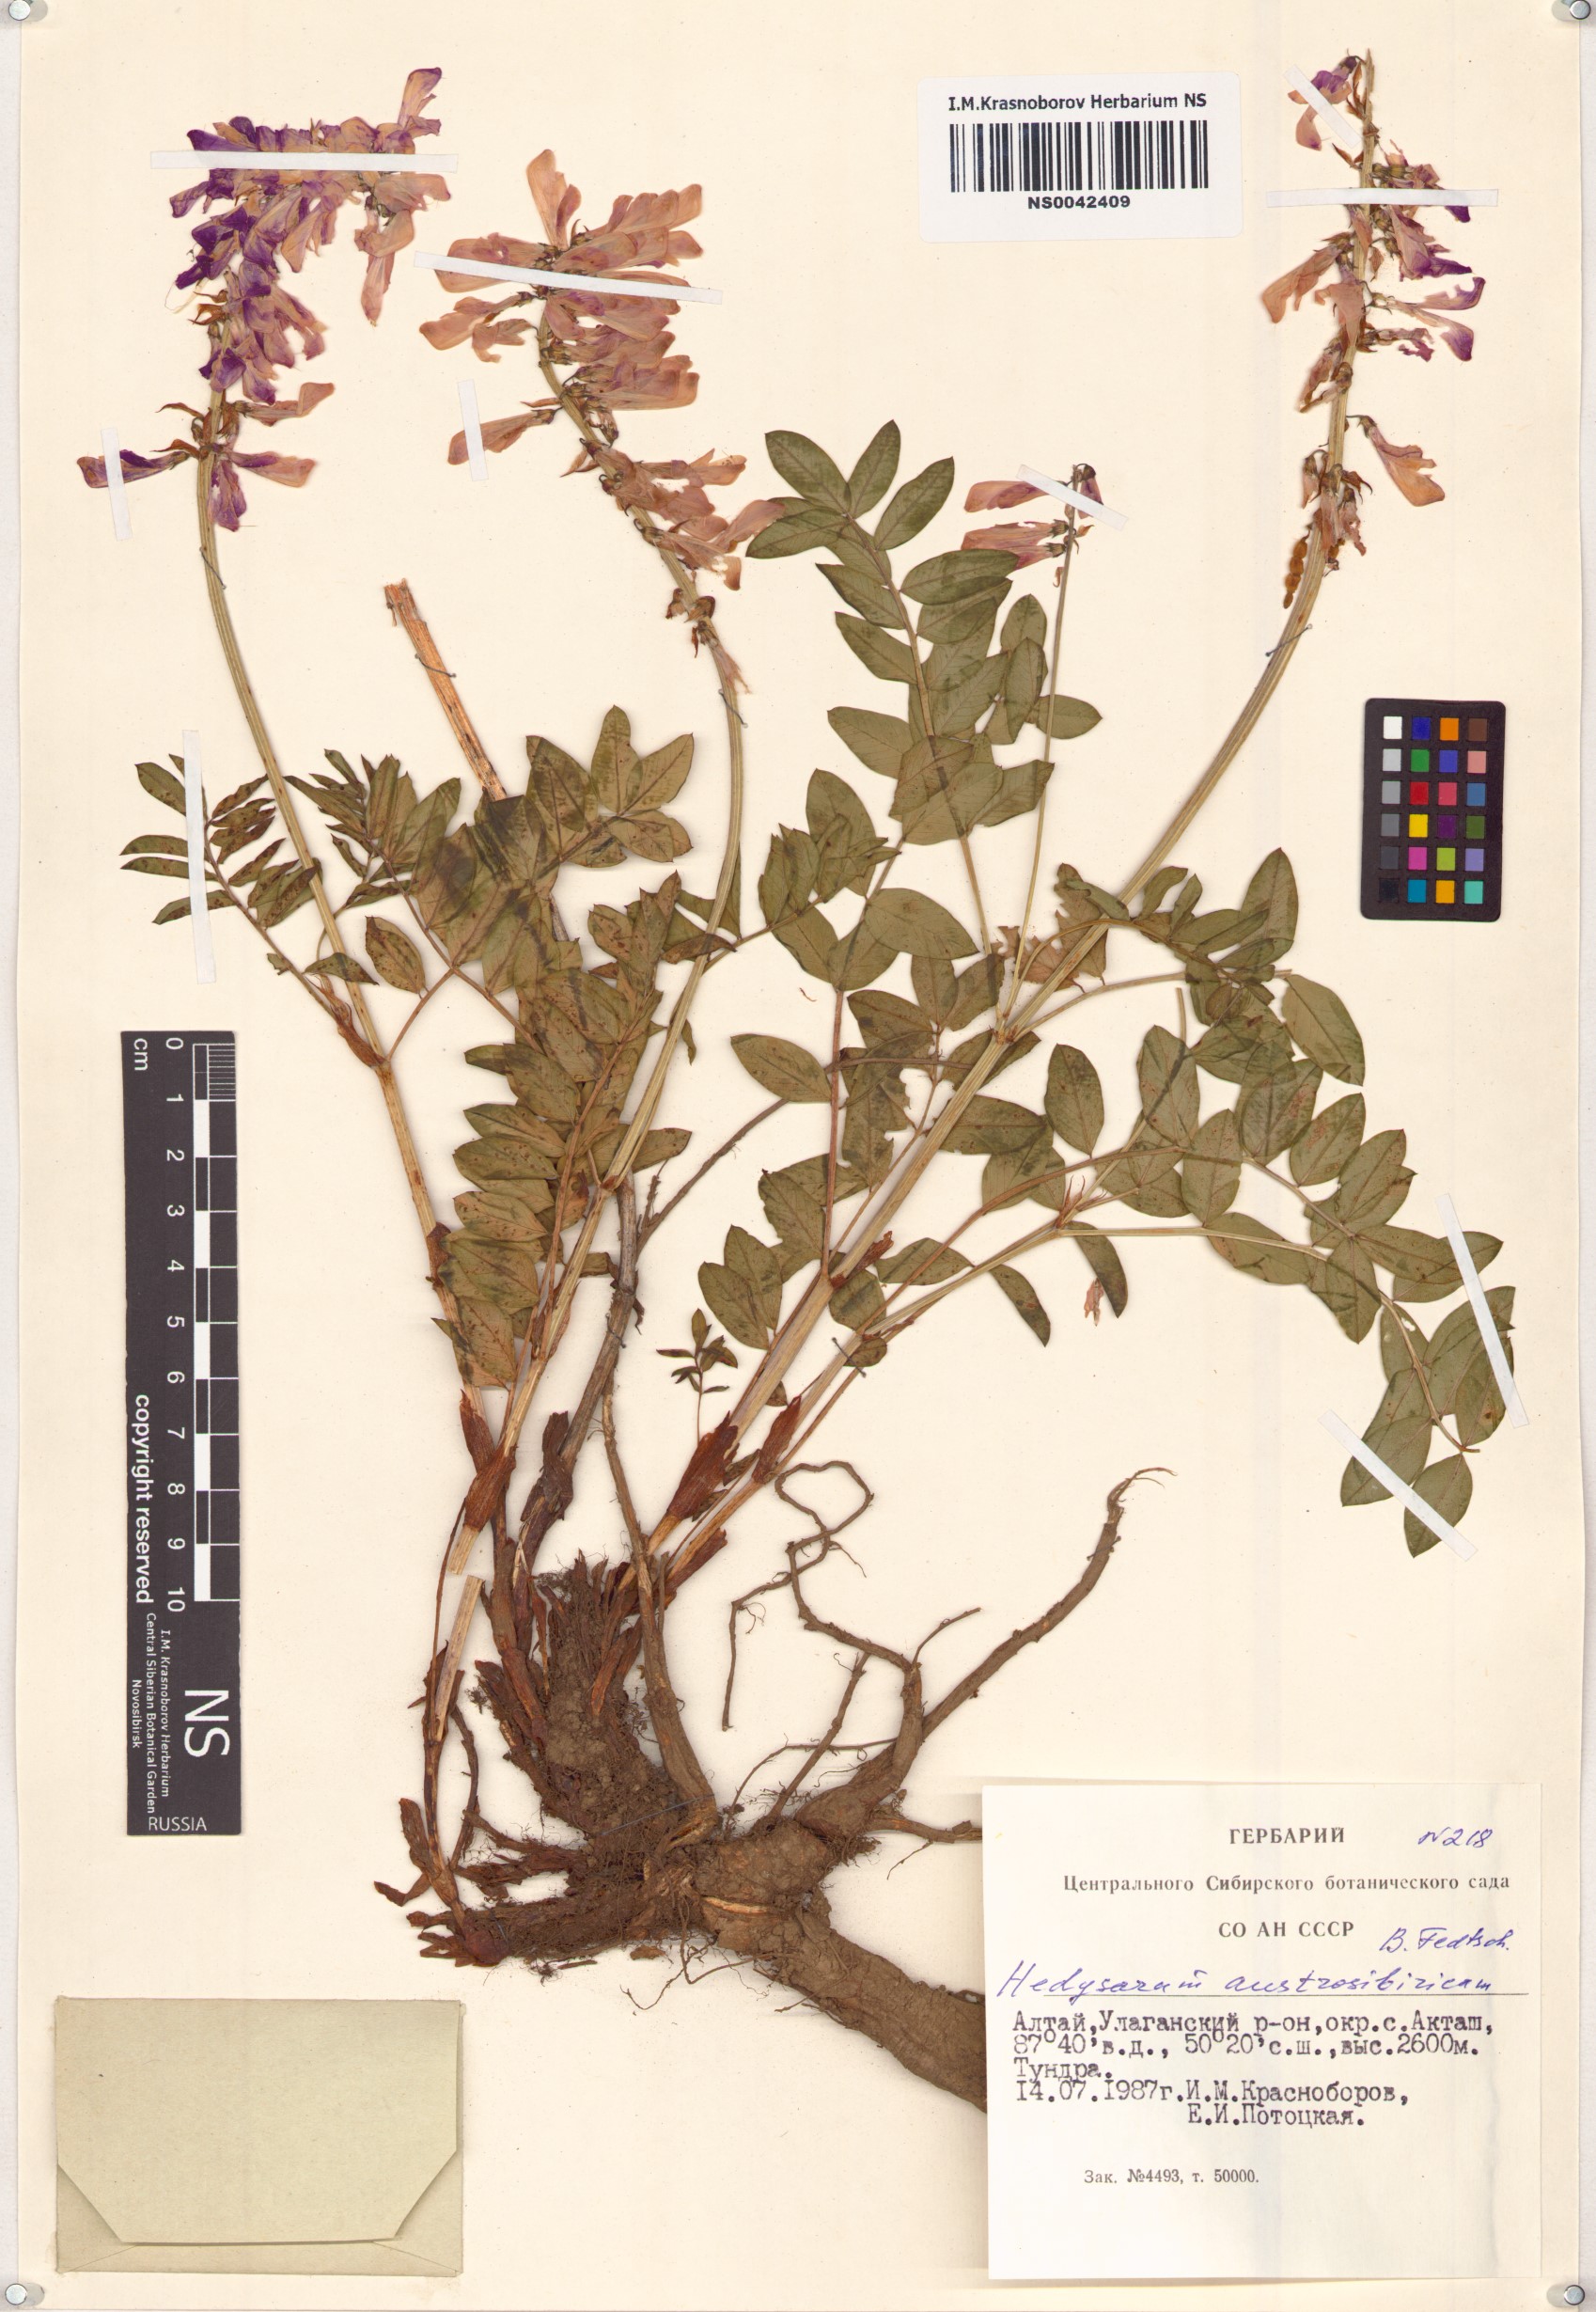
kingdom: Plantae
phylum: Tracheophyta
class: Magnoliopsida
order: Fabales
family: Fabaceae
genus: Hedysarum
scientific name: Hedysarum neglectum
